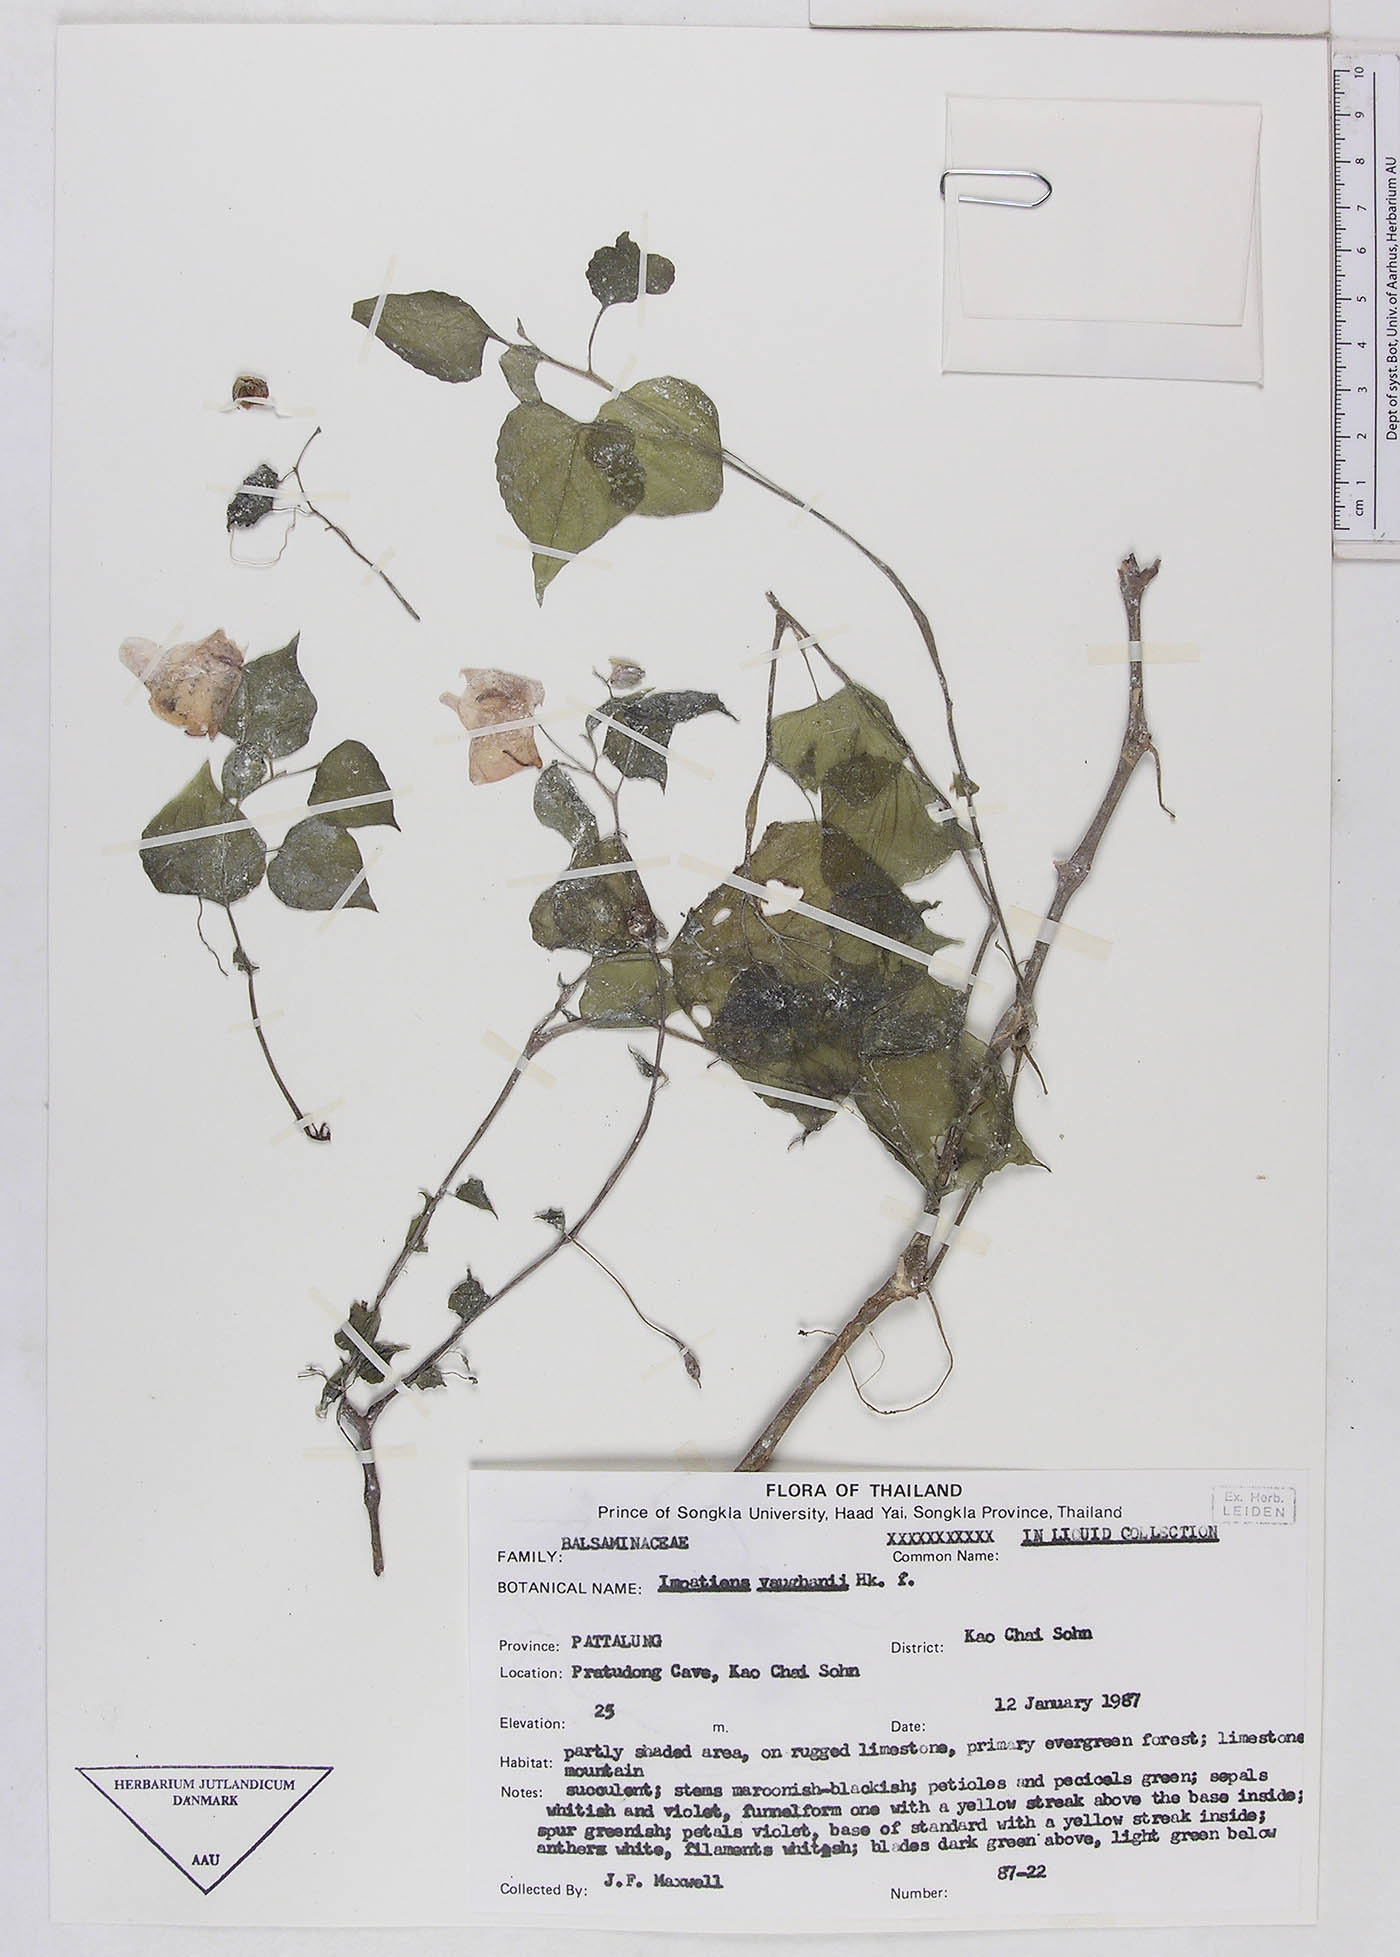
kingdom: Plantae
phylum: Tracheophyta
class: Magnoliopsida
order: Ericales
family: Balsaminaceae
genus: Impatiens
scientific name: Impatiens peltata
